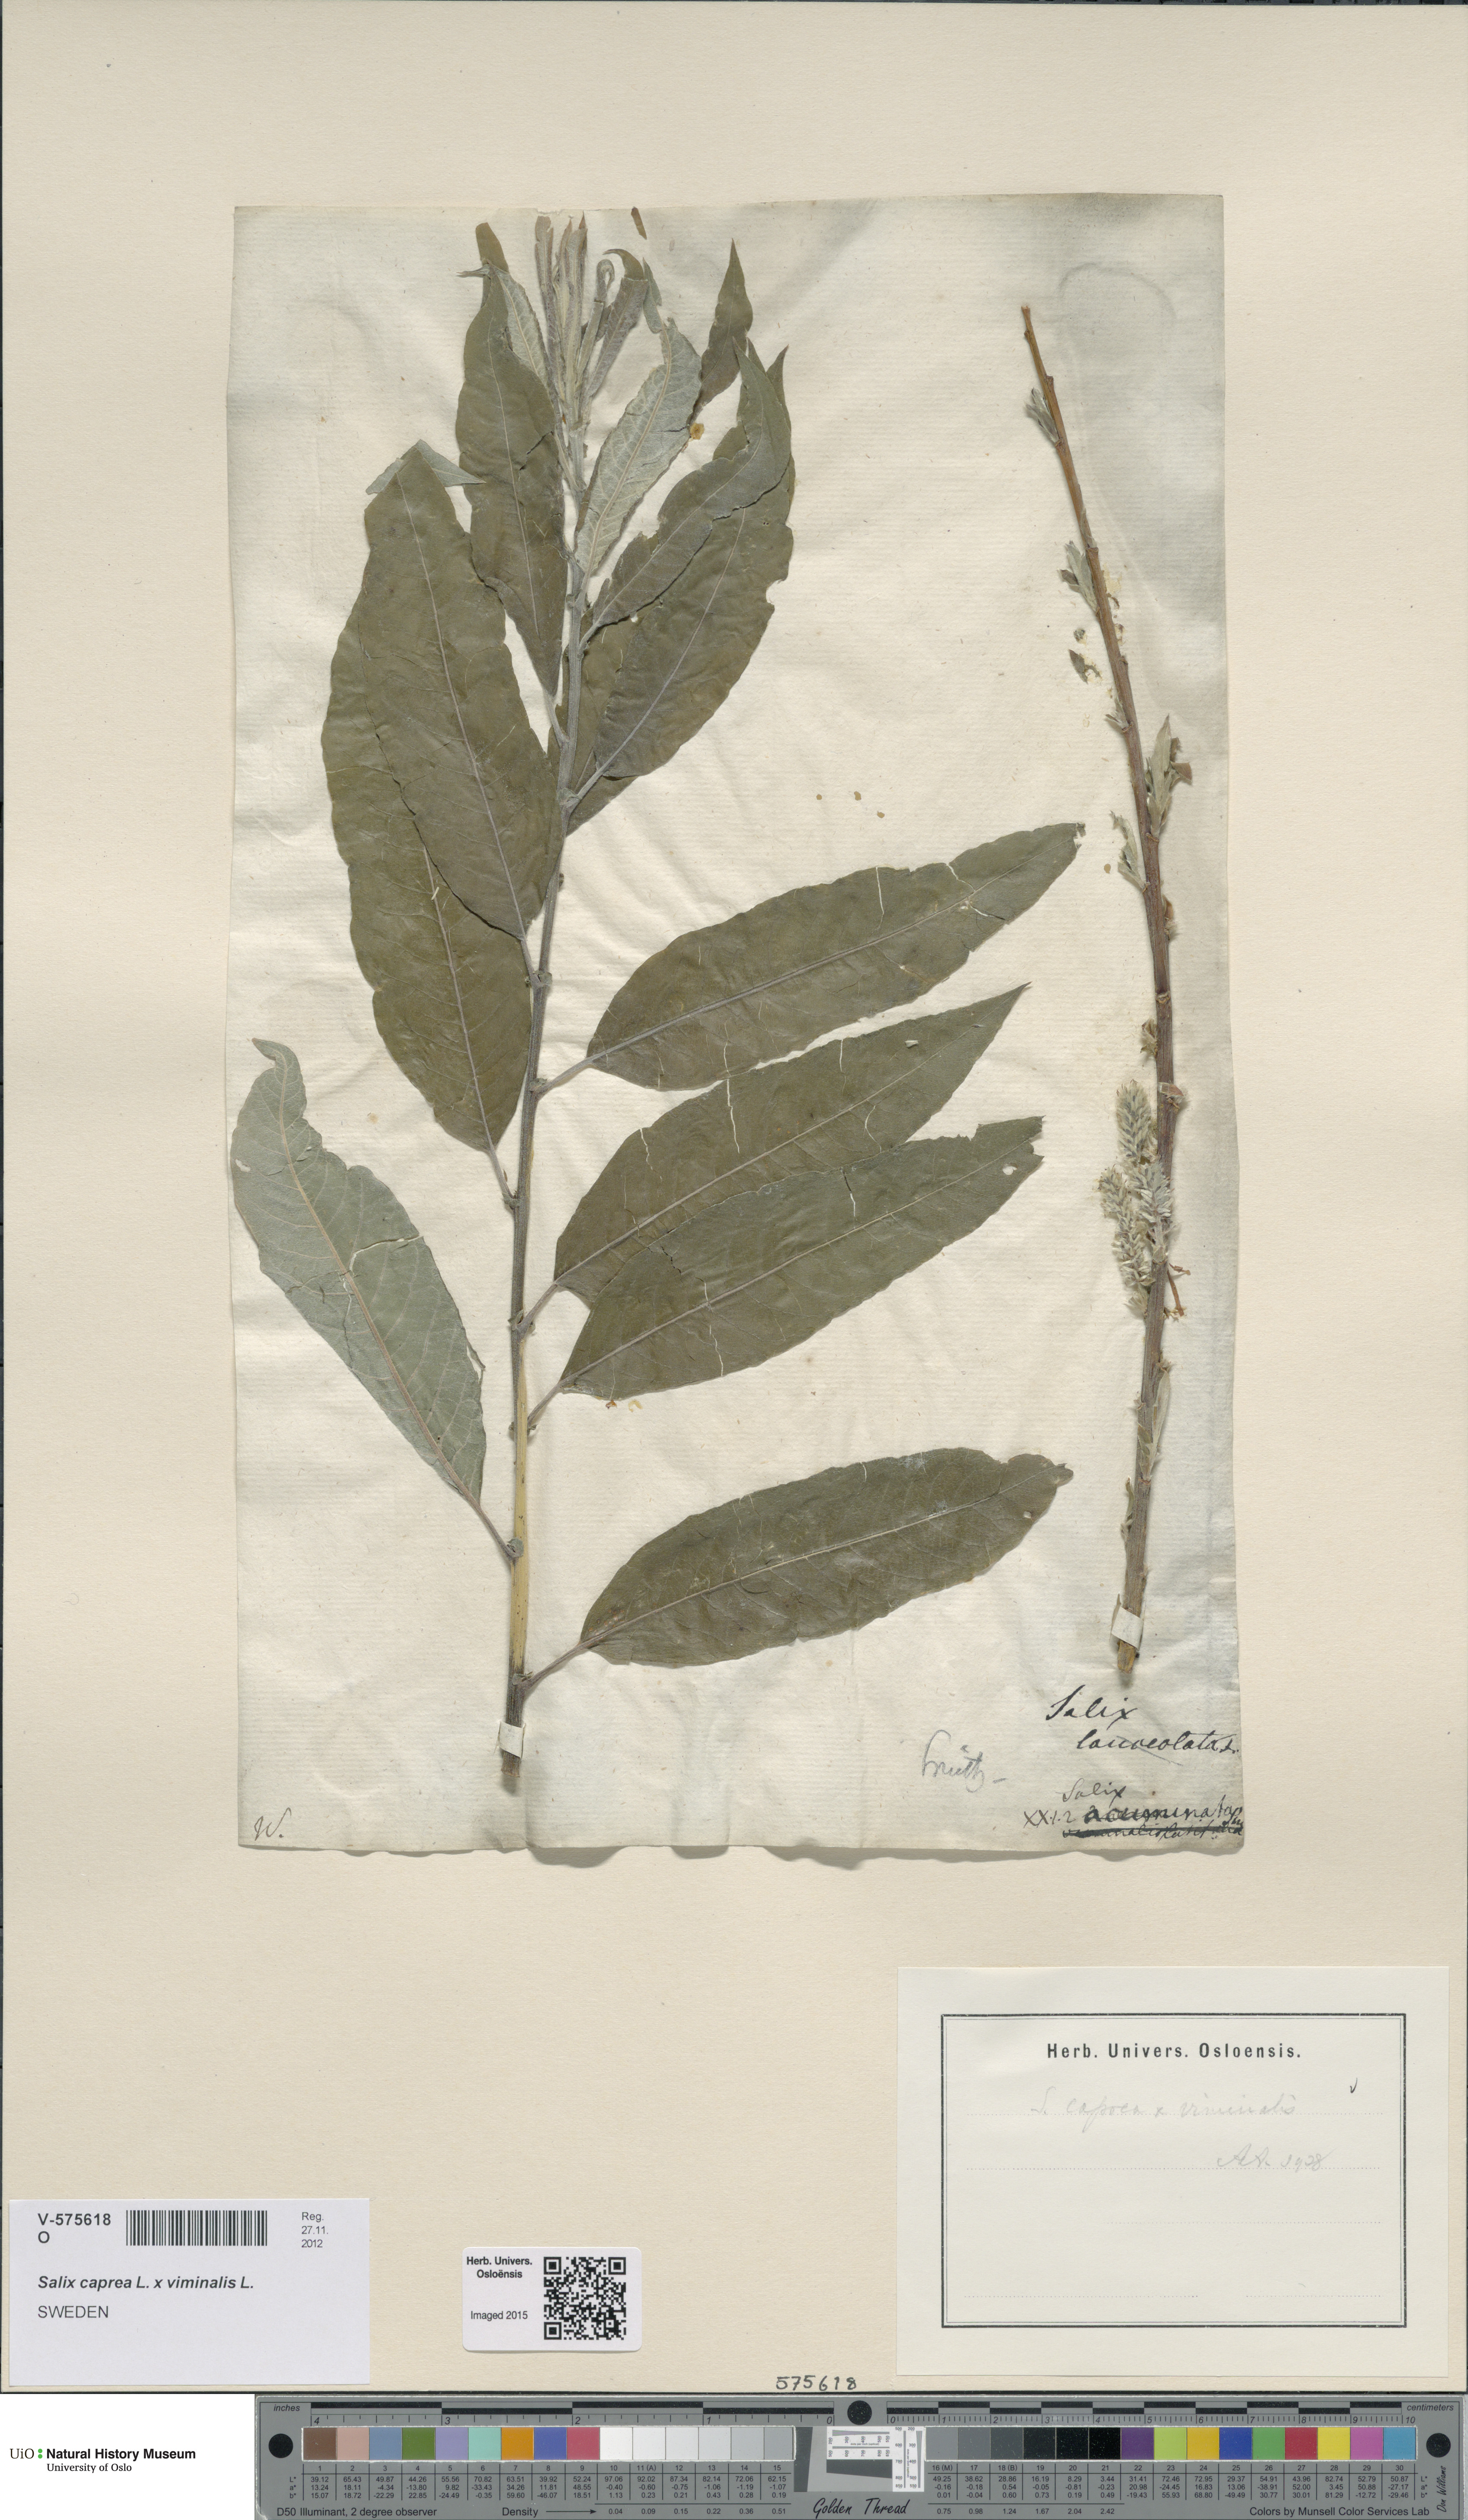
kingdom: Plantae
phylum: Tracheophyta
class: Magnoliopsida
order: Malpighiales
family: Salicaceae
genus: Salix
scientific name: Salix
